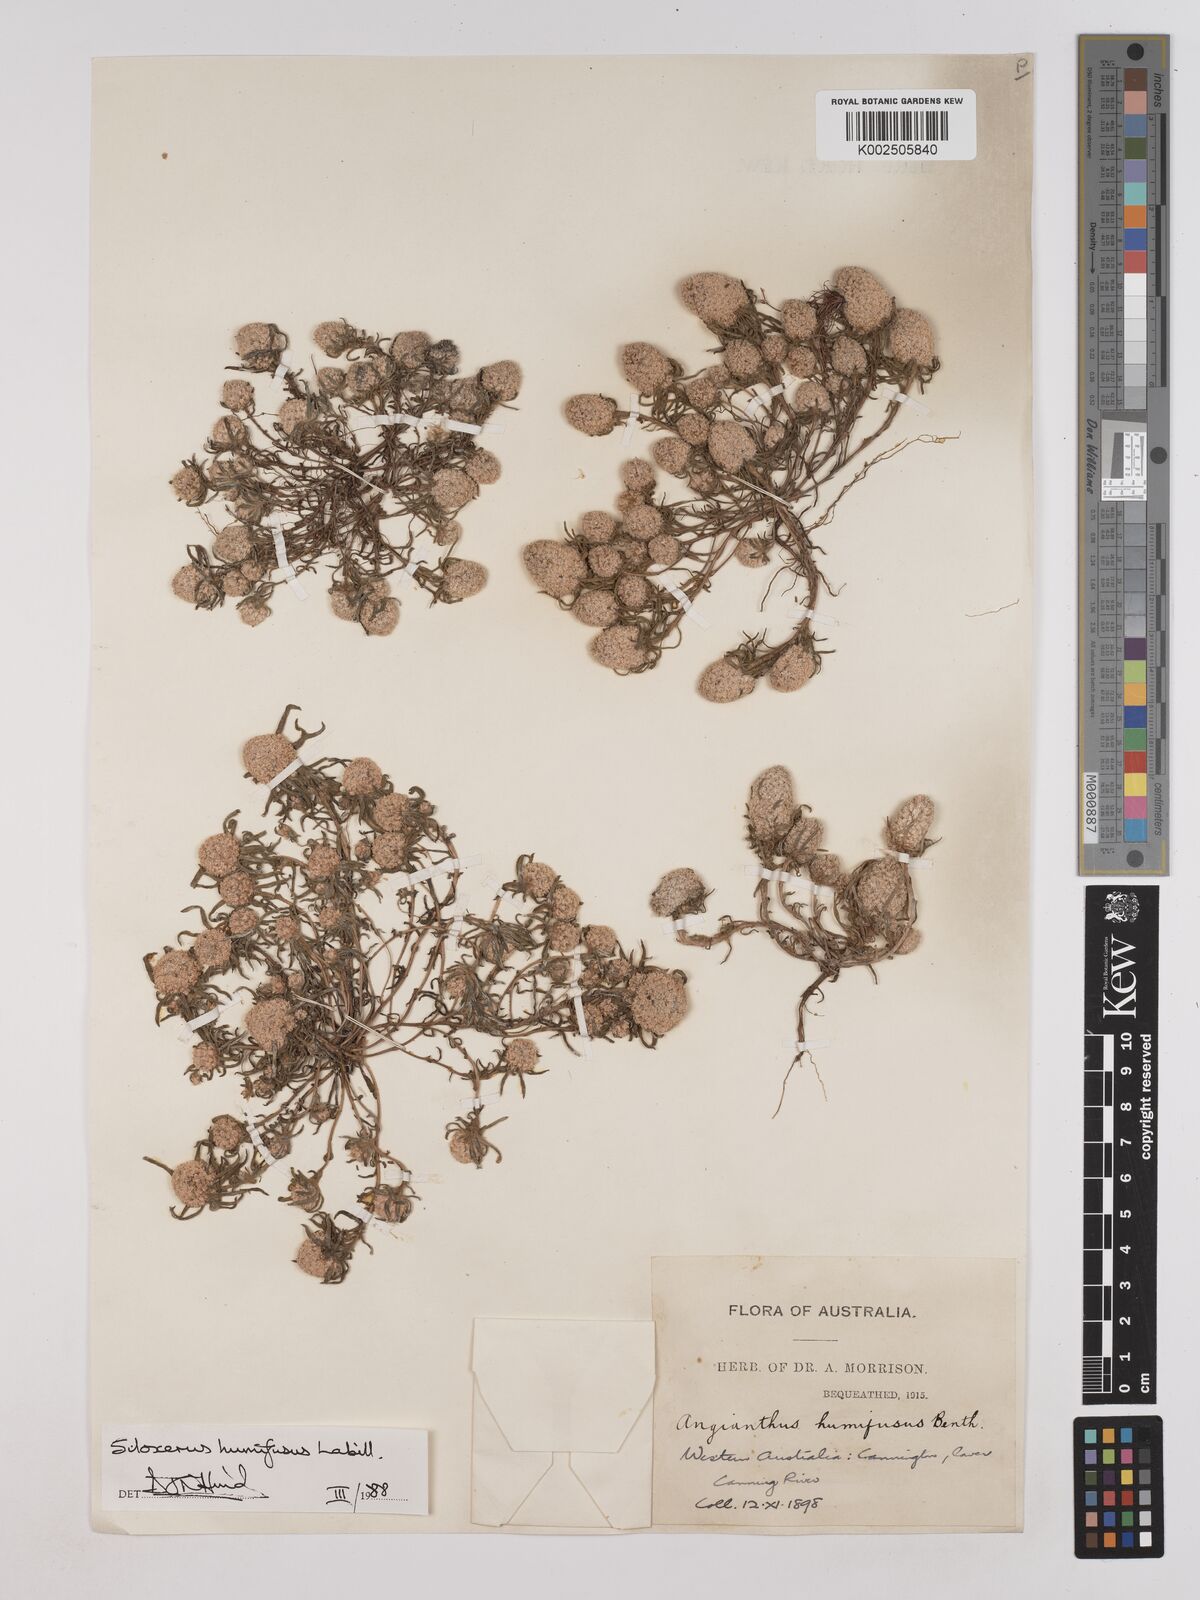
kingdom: Plantae
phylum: Tracheophyta
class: Magnoliopsida
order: Asterales
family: Asteraceae
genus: Siloxerus
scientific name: Siloxerus humifusus
